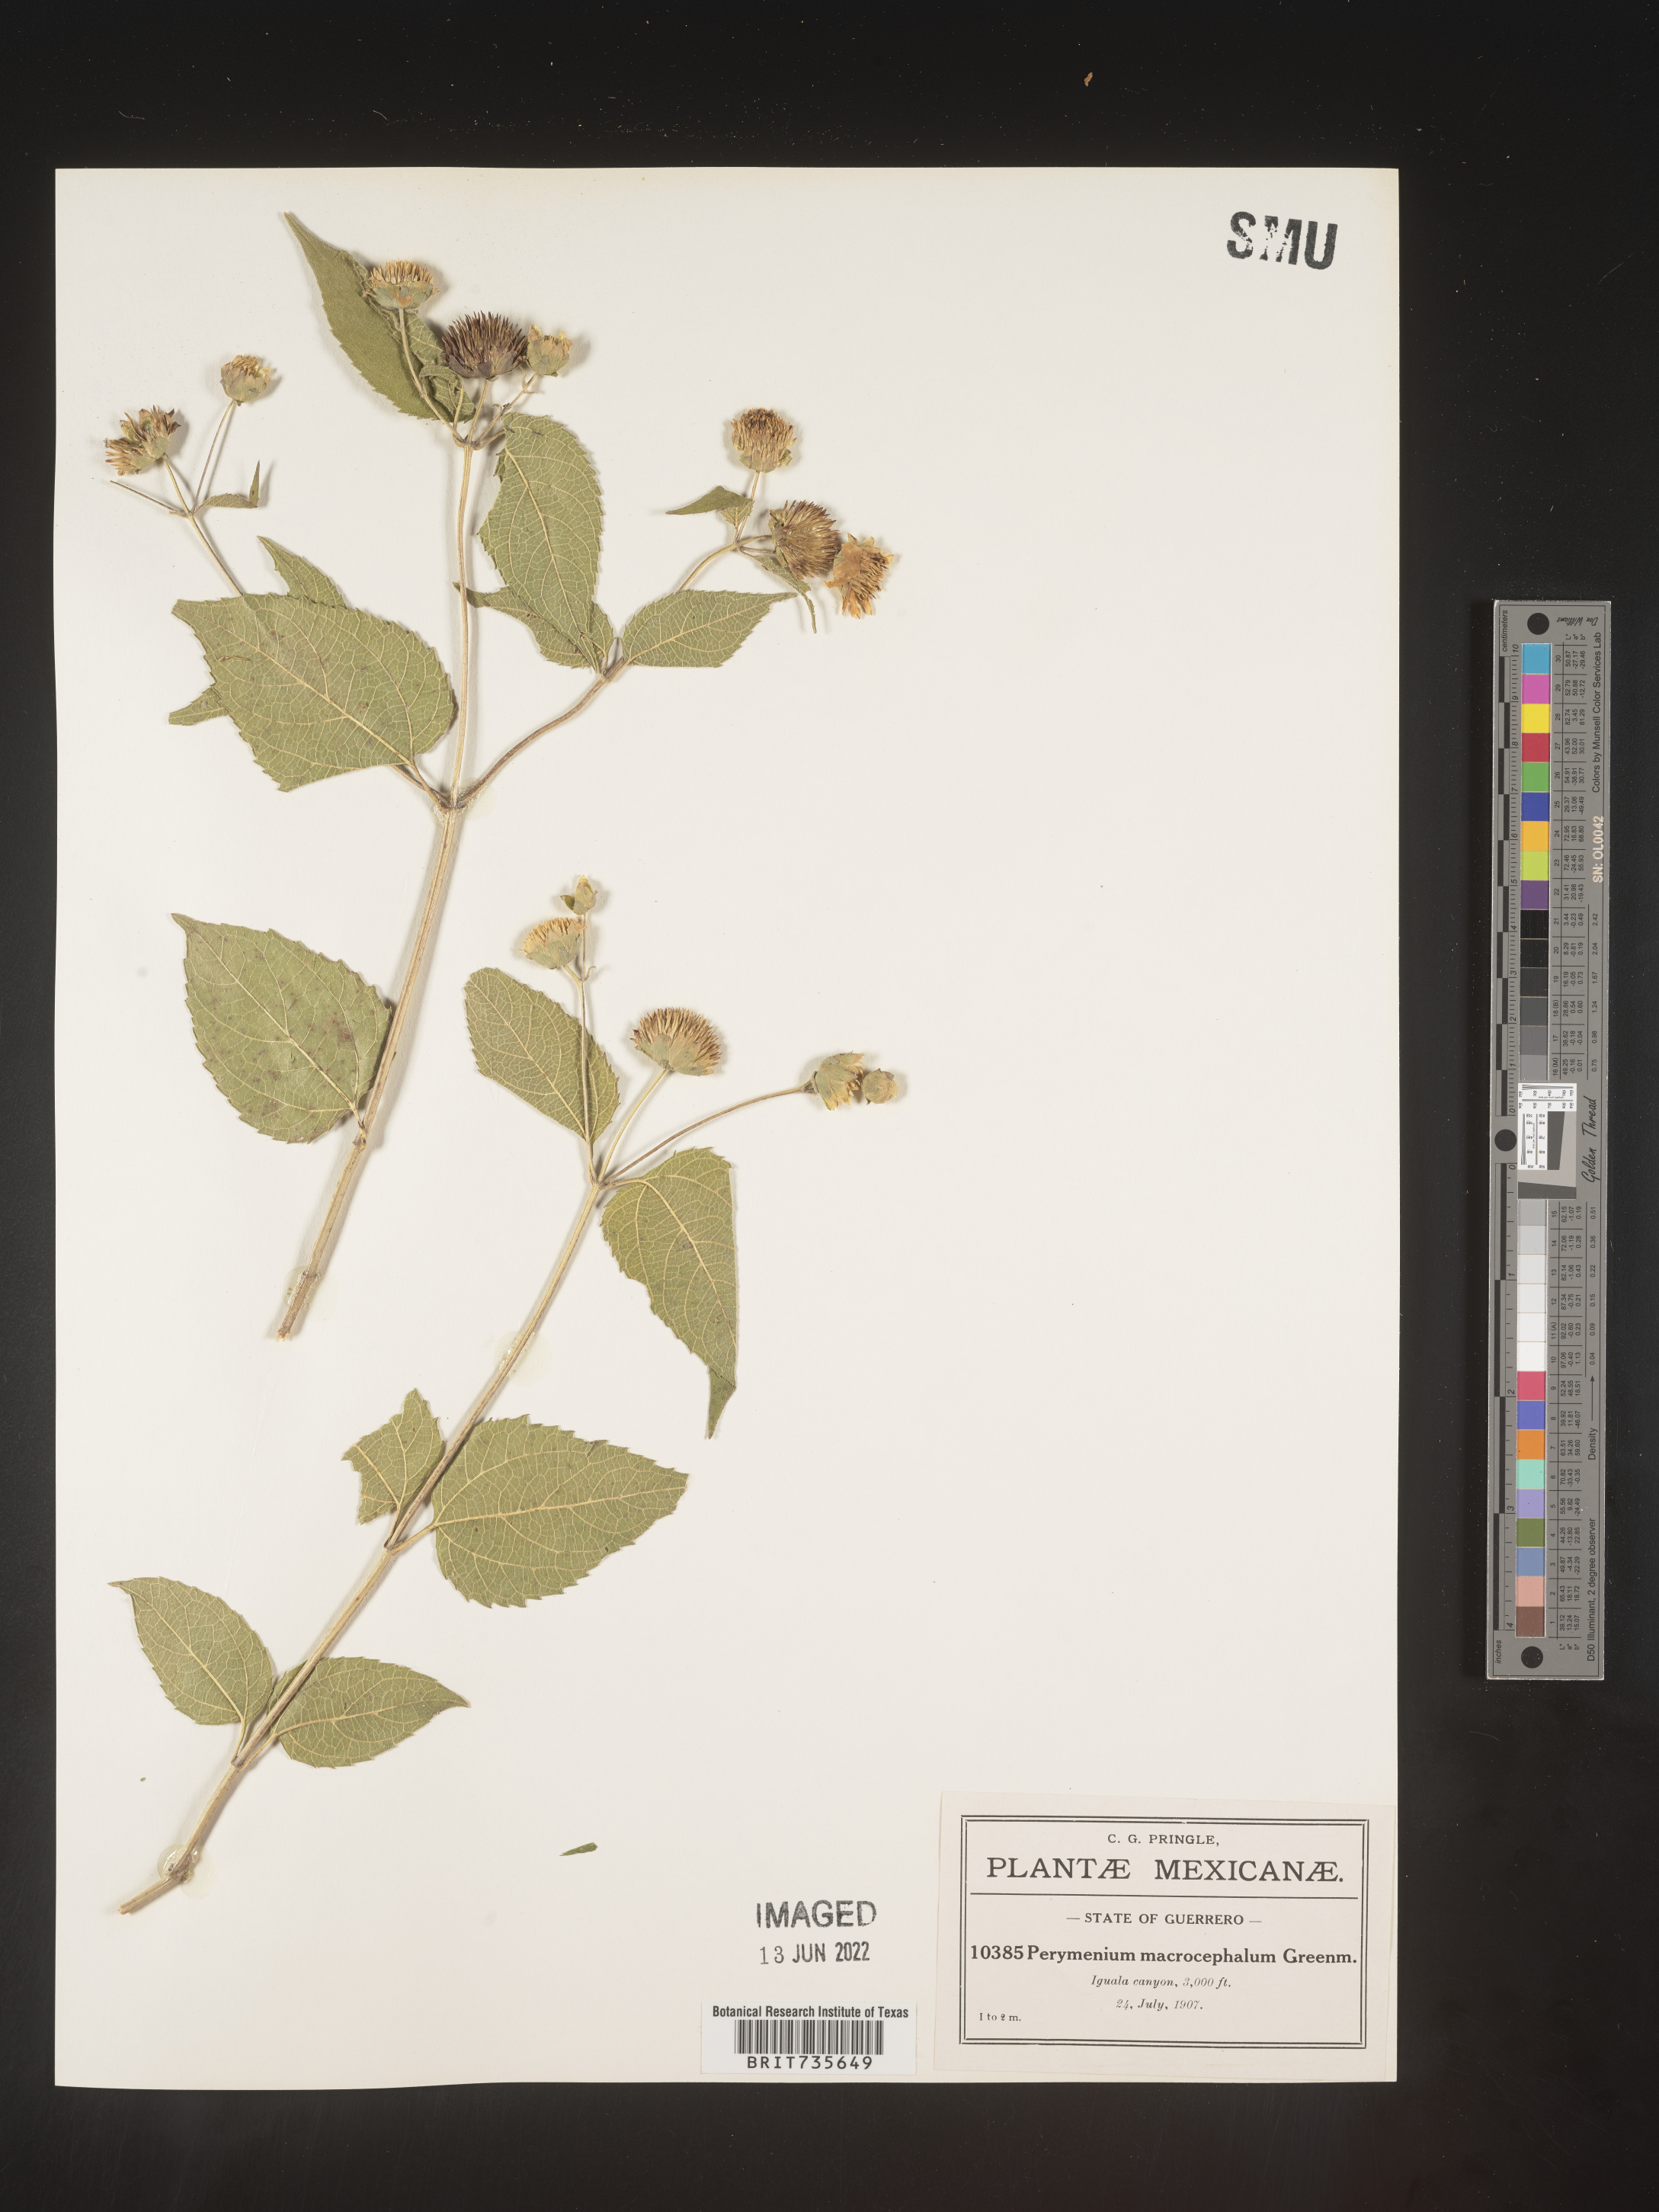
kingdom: Plantae
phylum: Tracheophyta
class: Magnoliopsida
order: Asterales
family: Asteraceae
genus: Perymenium
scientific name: Perymenium
